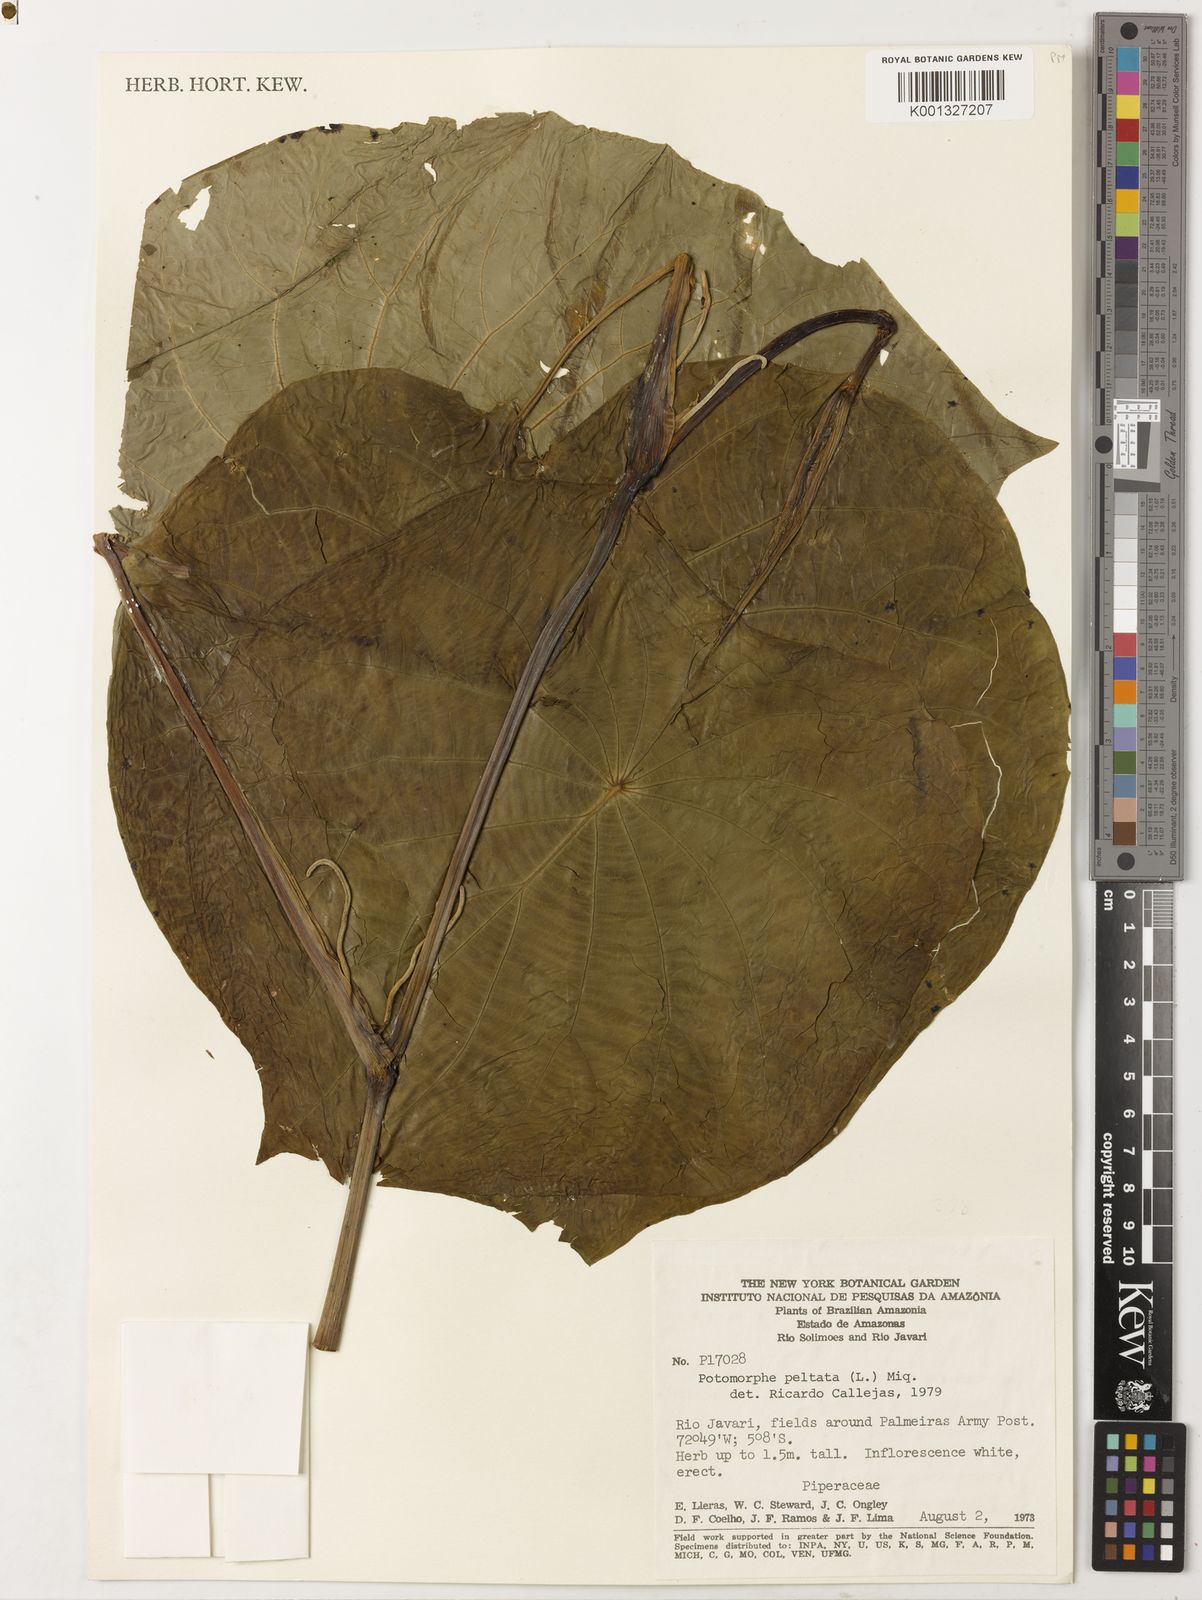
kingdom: Plantae
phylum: Tracheophyta
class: Magnoliopsida
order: Piperales
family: Piperaceae
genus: Piper
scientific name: Piper peltatum
